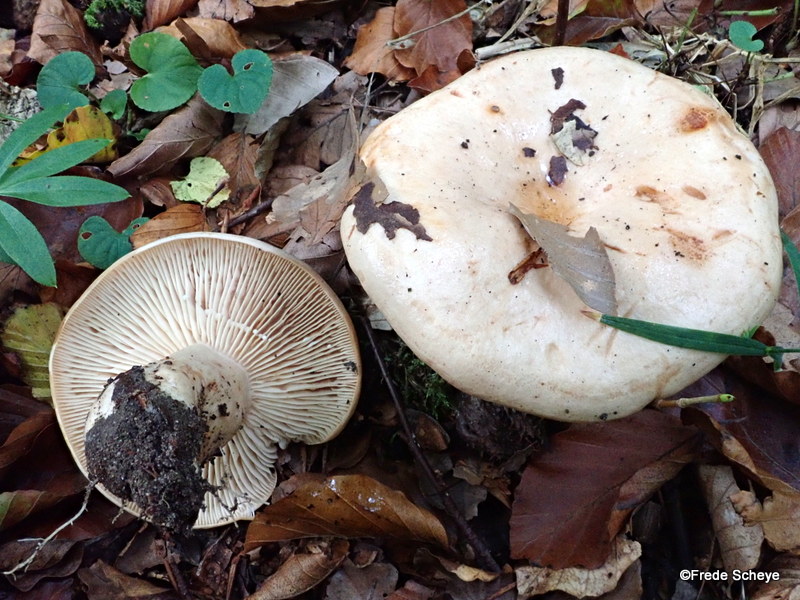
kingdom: Fungi
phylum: Basidiomycota
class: Agaricomycetes
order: Russulales
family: Russulaceae
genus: Lactarius
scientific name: Lactarius pallidus
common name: bleg mælkehat
